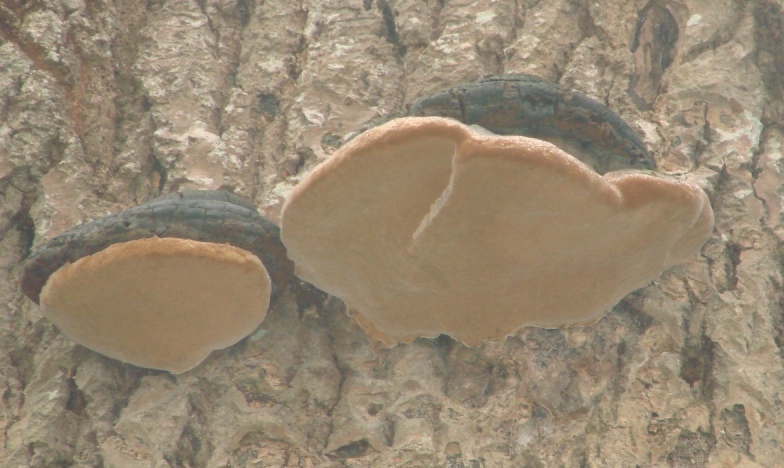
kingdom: Fungi
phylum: Basidiomycota
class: Agaricomycetes
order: Hymenochaetales
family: Hymenochaetaceae
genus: Phellinus
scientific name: Phellinus populicola
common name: poppel-ildporesvamp
